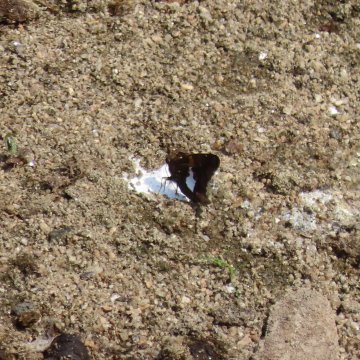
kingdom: Animalia
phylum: Arthropoda
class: Insecta
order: Lepidoptera
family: Hesperiidae
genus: Epargyreus
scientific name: Epargyreus clarus
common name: Silver-spotted Skipper
